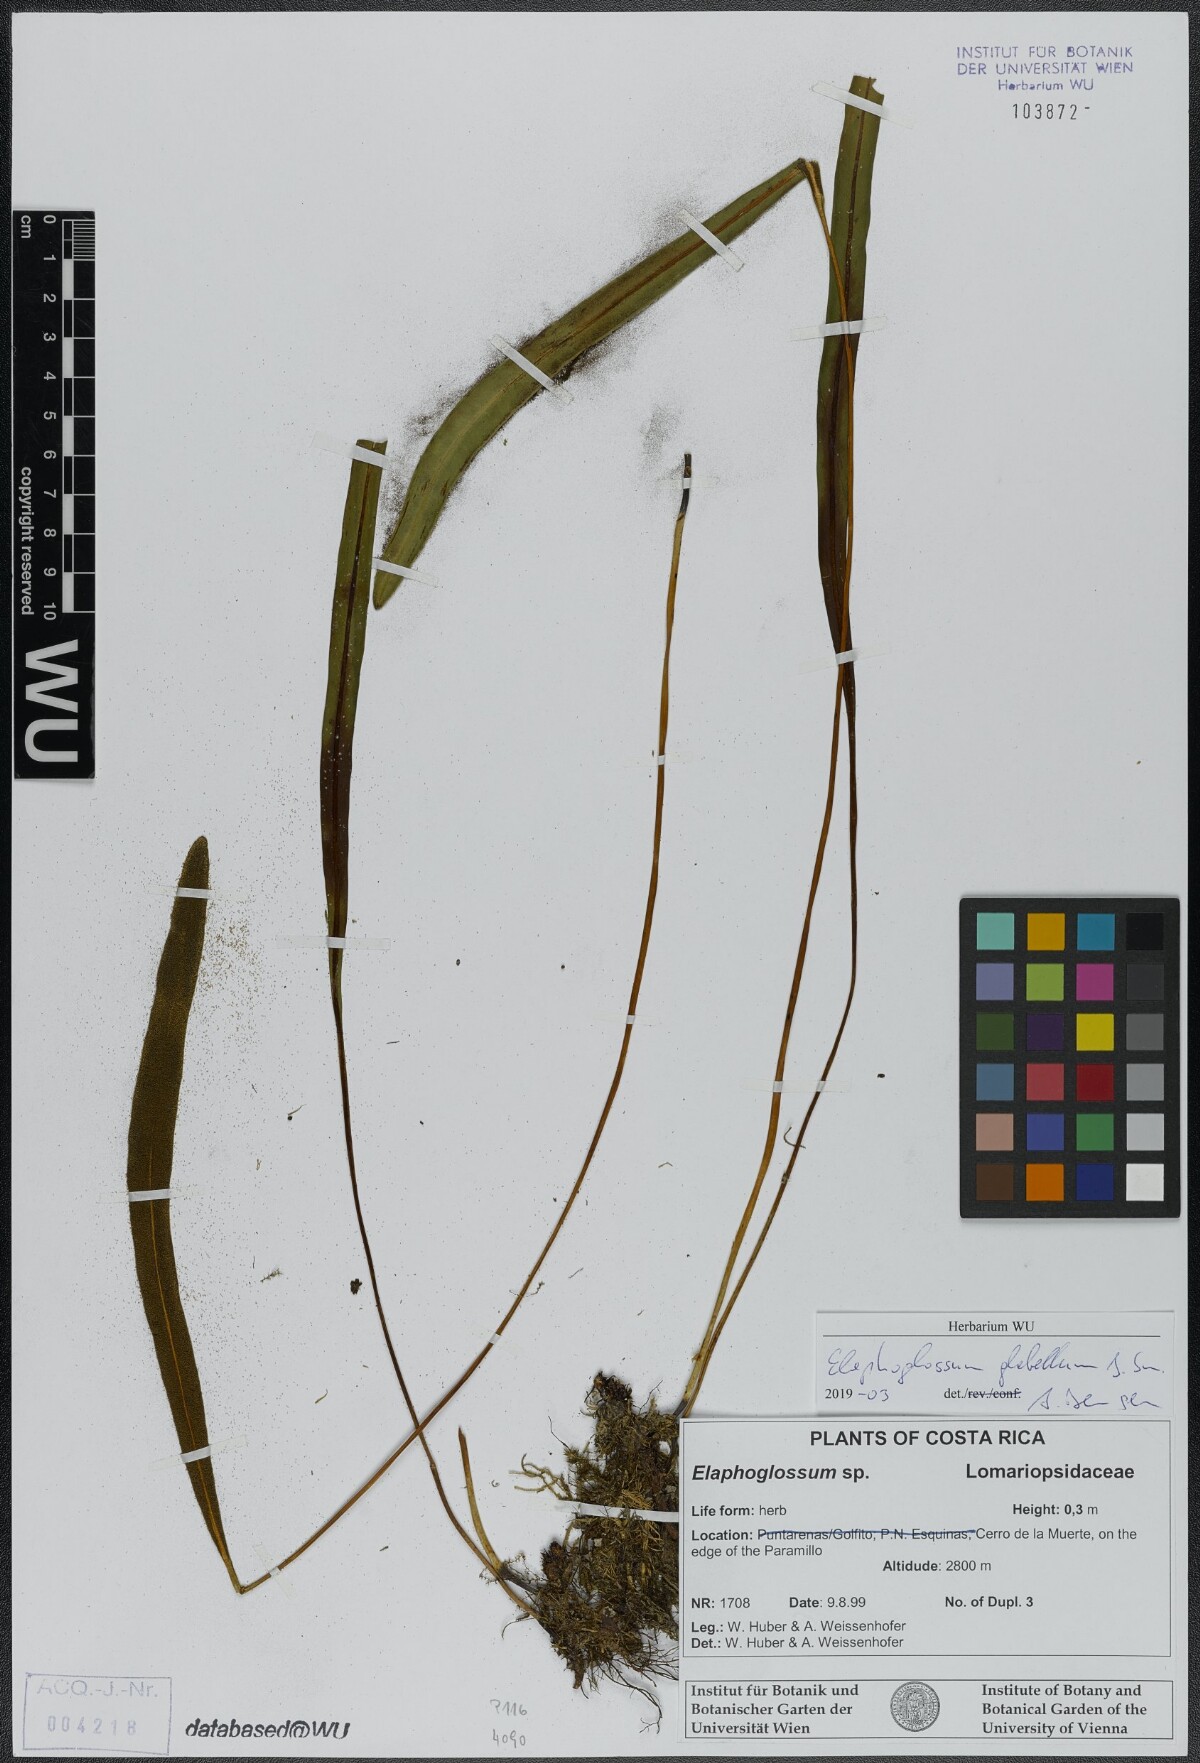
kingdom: Plantae
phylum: Tracheophyta
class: Polypodiopsida
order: Polypodiales
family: Dryopteridaceae
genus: Elaphoglossum
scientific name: Elaphoglossum glabellum
